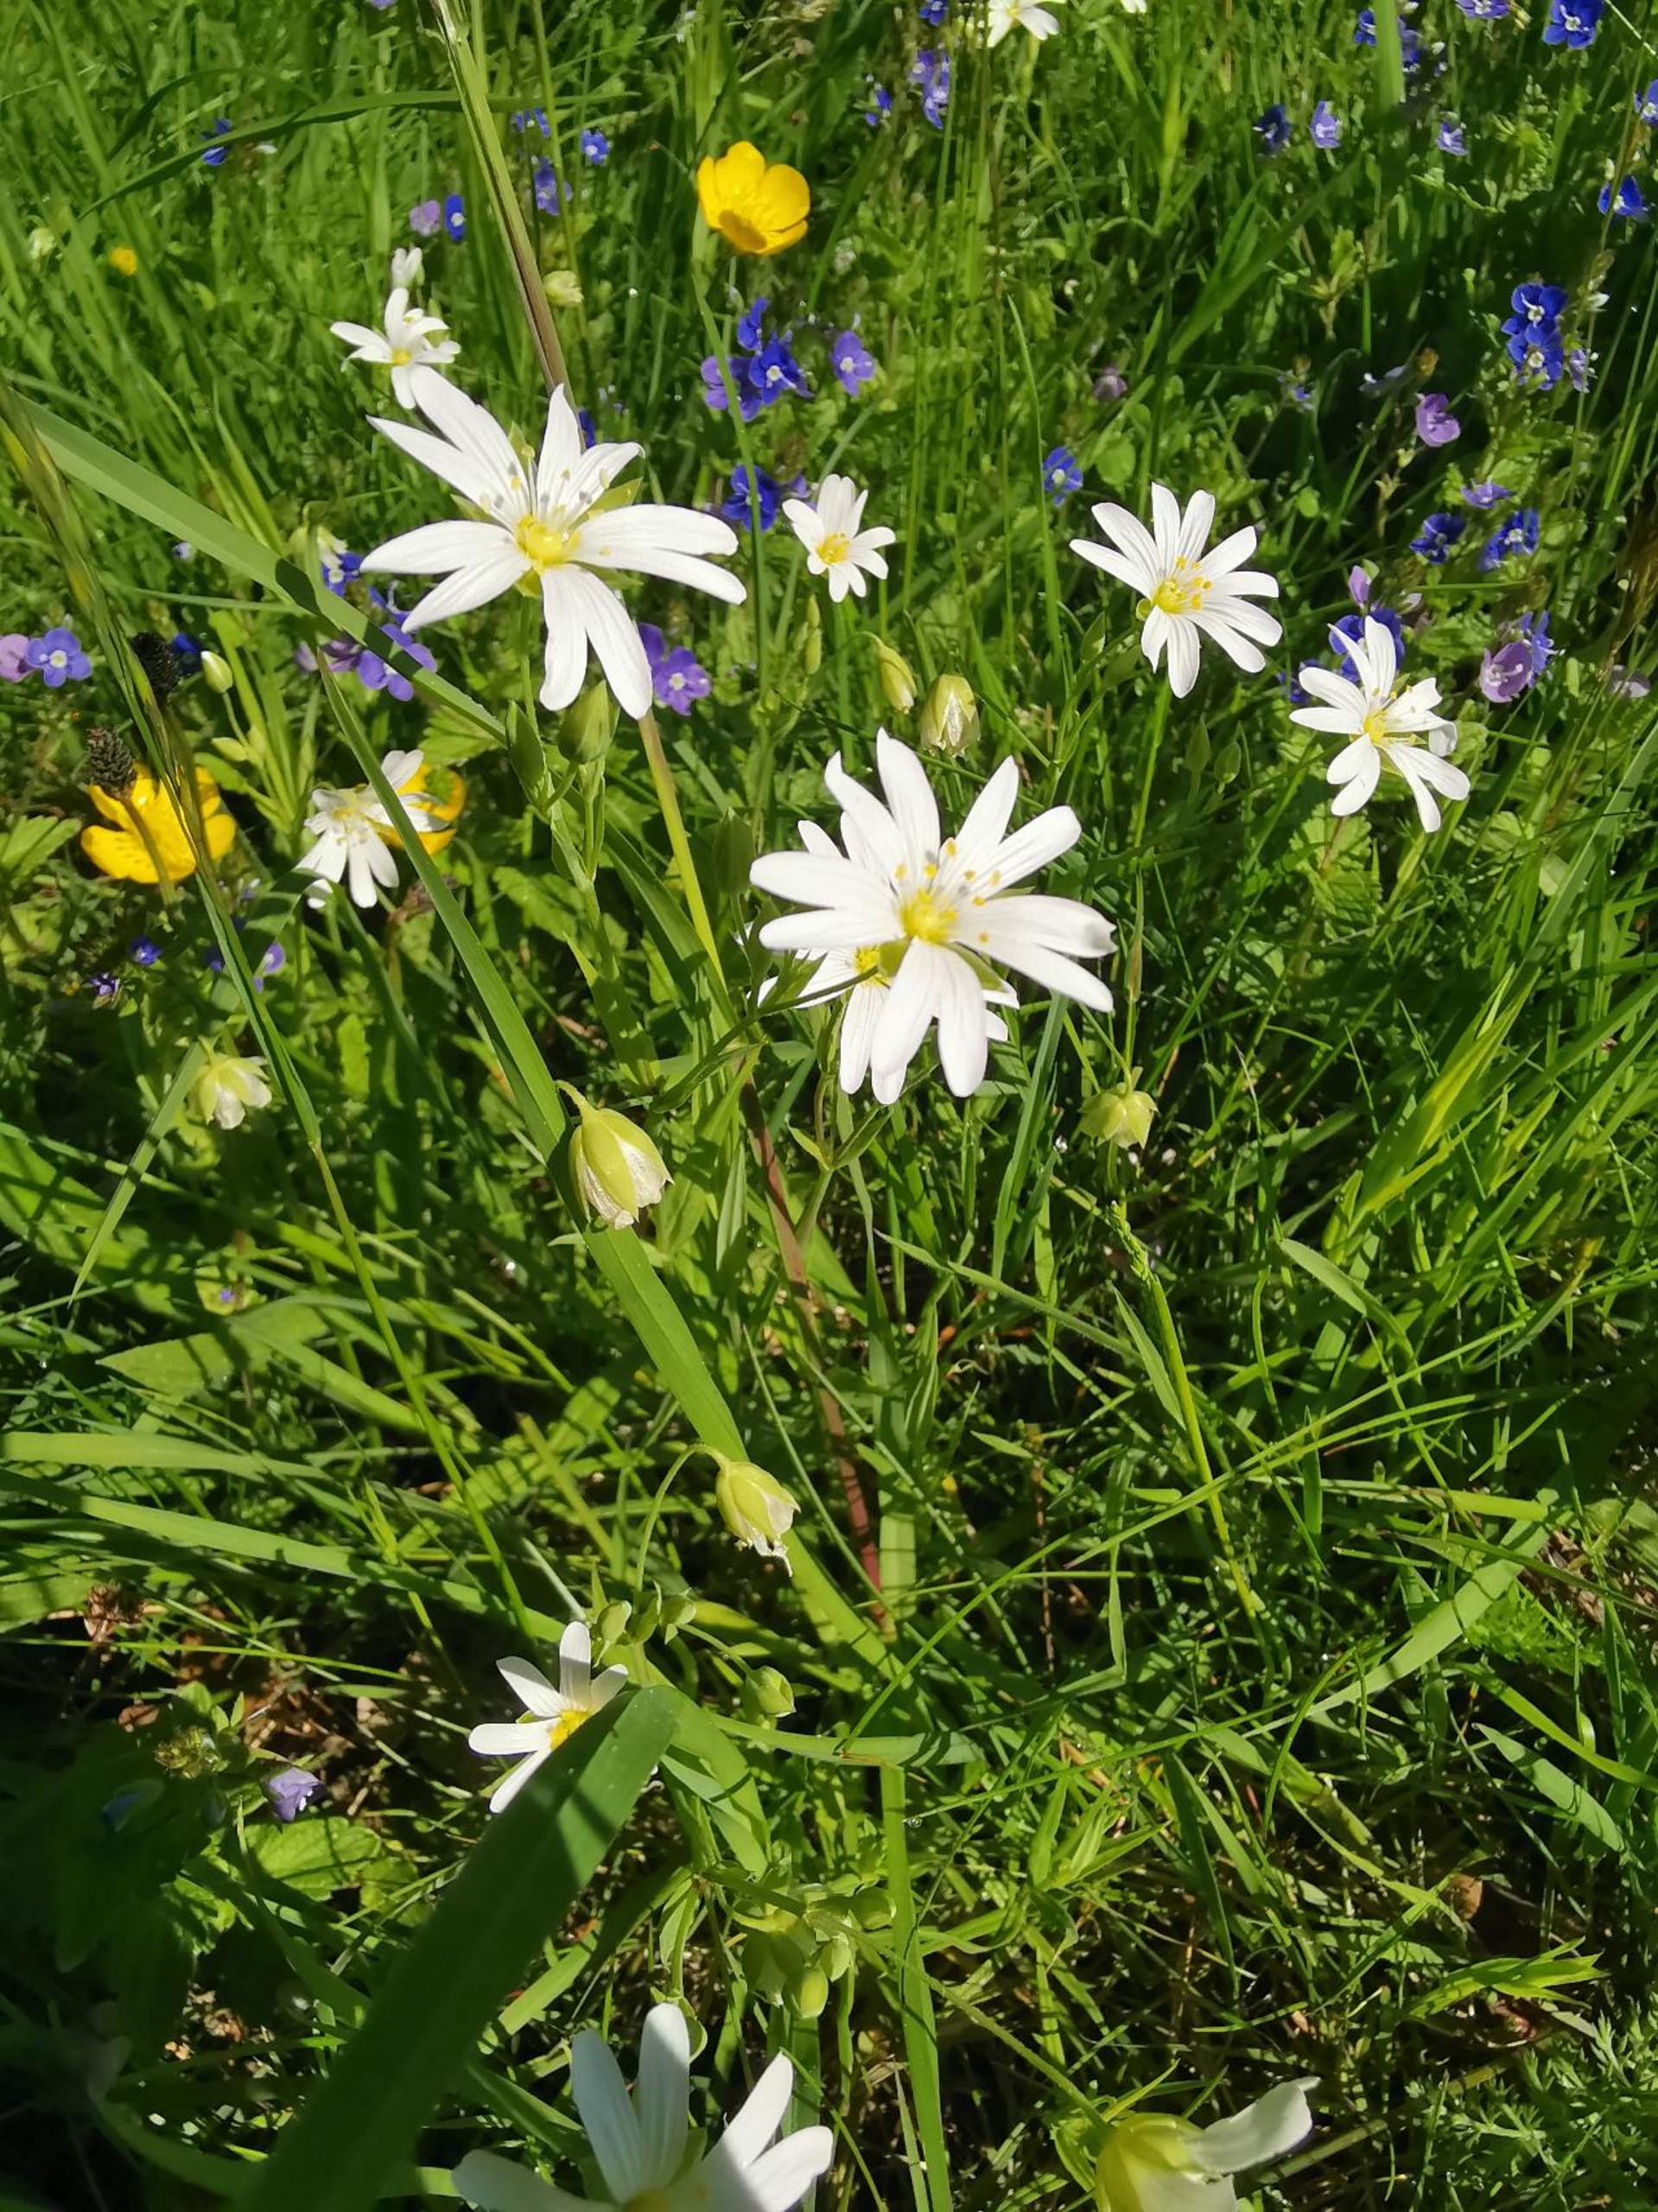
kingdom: Plantae
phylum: Tracheophyta
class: Magnoliopsida
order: Caryophyllales
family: Caryophyllaceae
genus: Rabelera
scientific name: Rabelera holostea
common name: Stor fladstjerne
